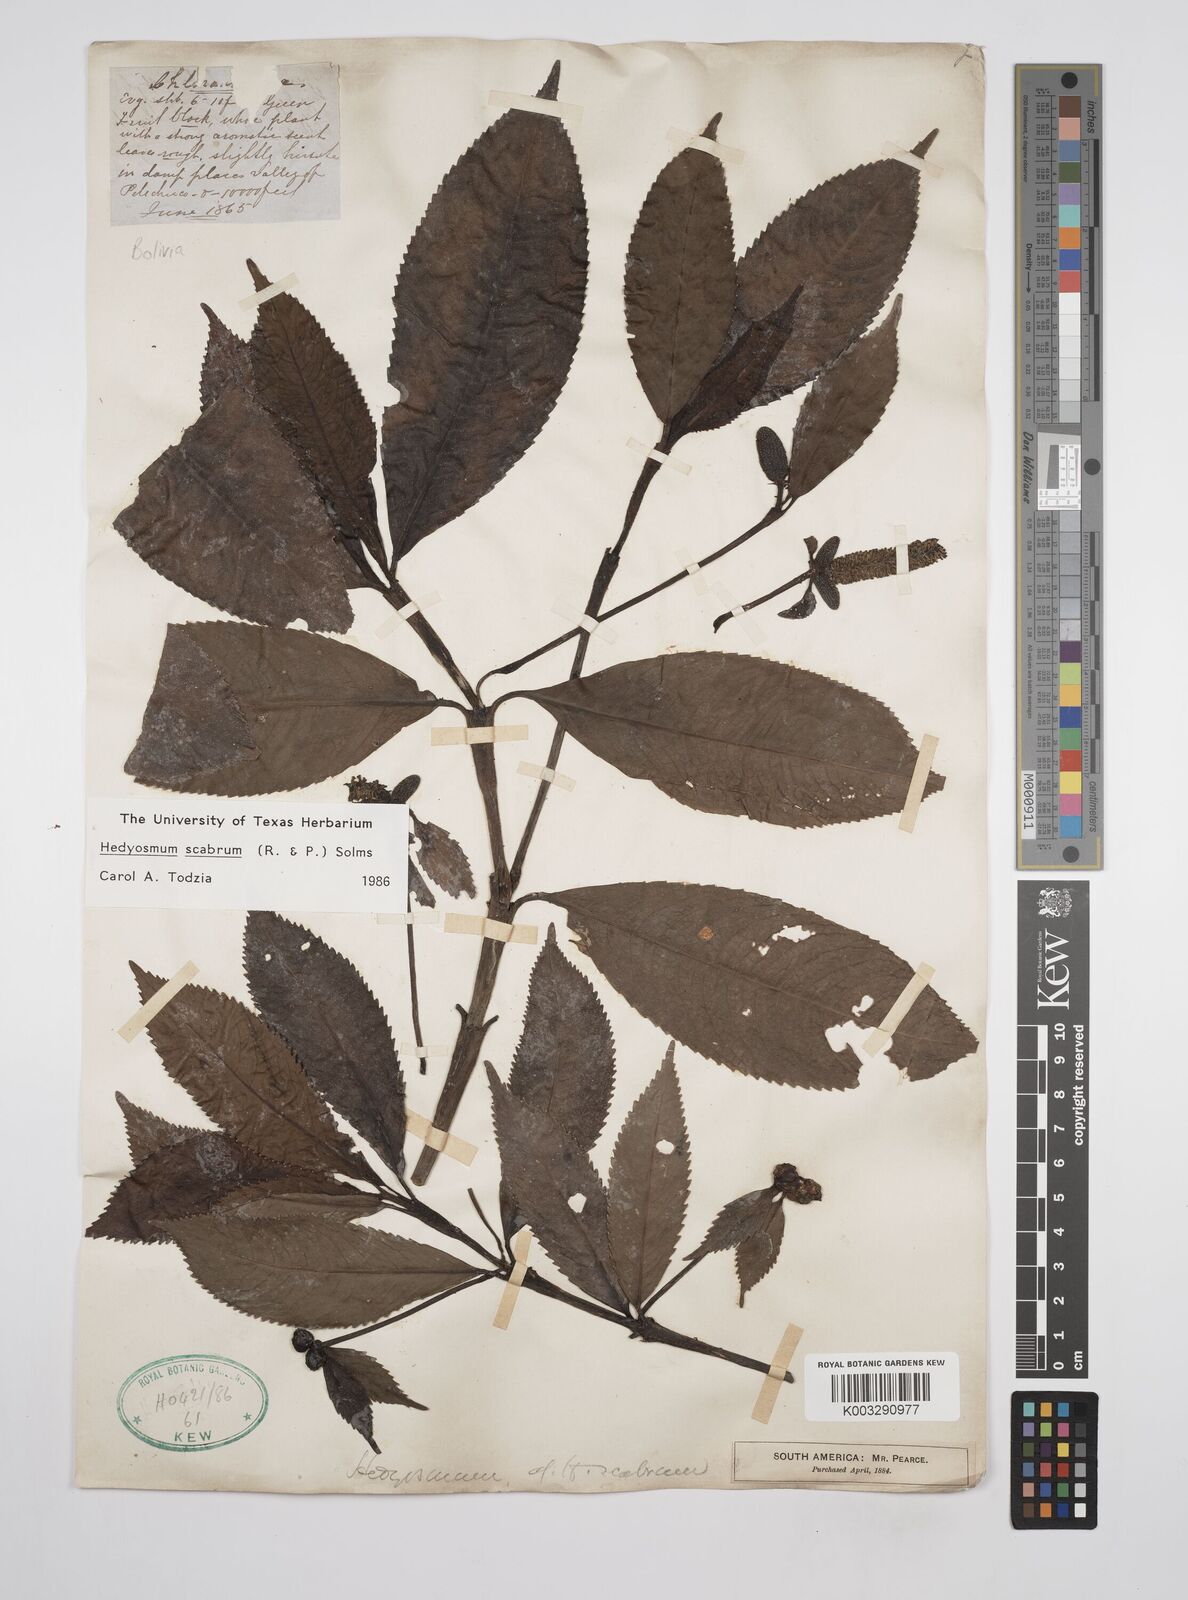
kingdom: Plantae
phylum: Tracheophyta
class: Magnoliopsida
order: Chloranthales
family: Chloranthaceae
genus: Hedyosmum
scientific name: Hedyosmum scabrum
